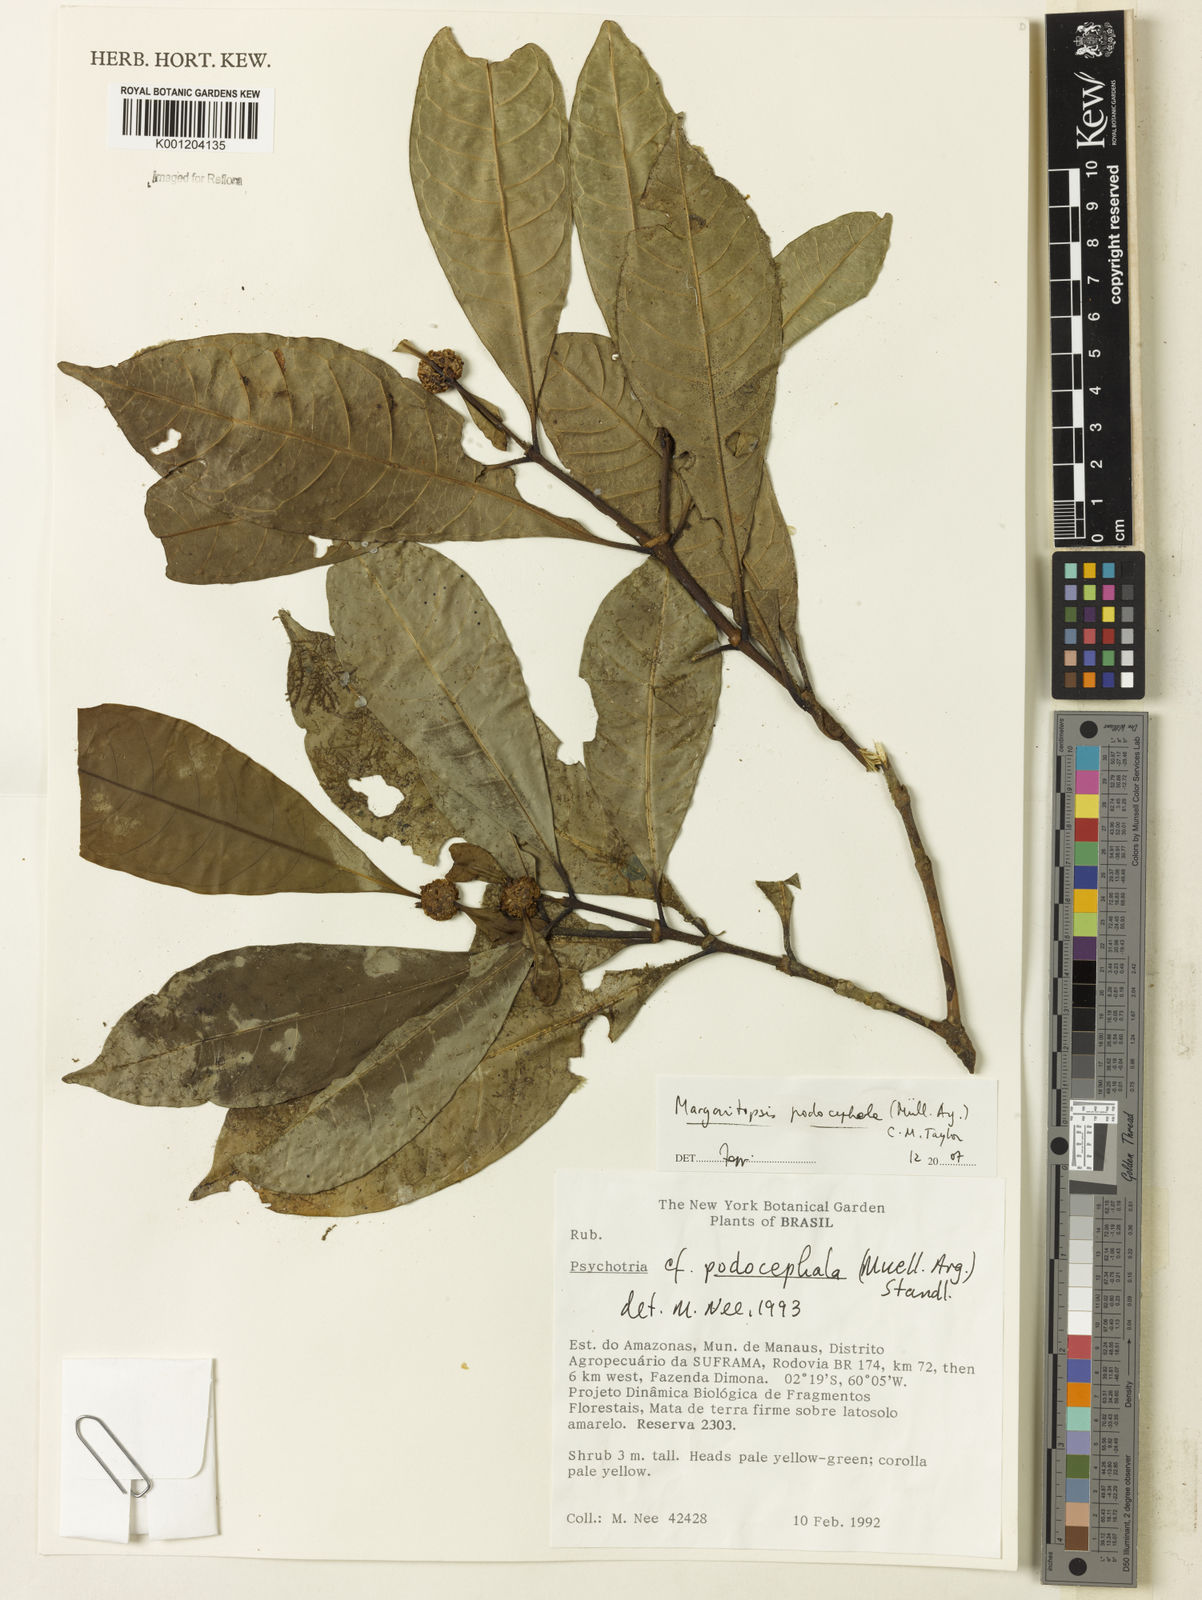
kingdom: Plantae
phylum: Tracheophyta
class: Magnoliopsida
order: Gentianales
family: Rubiaceae
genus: Eumachia
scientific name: Eumachia
